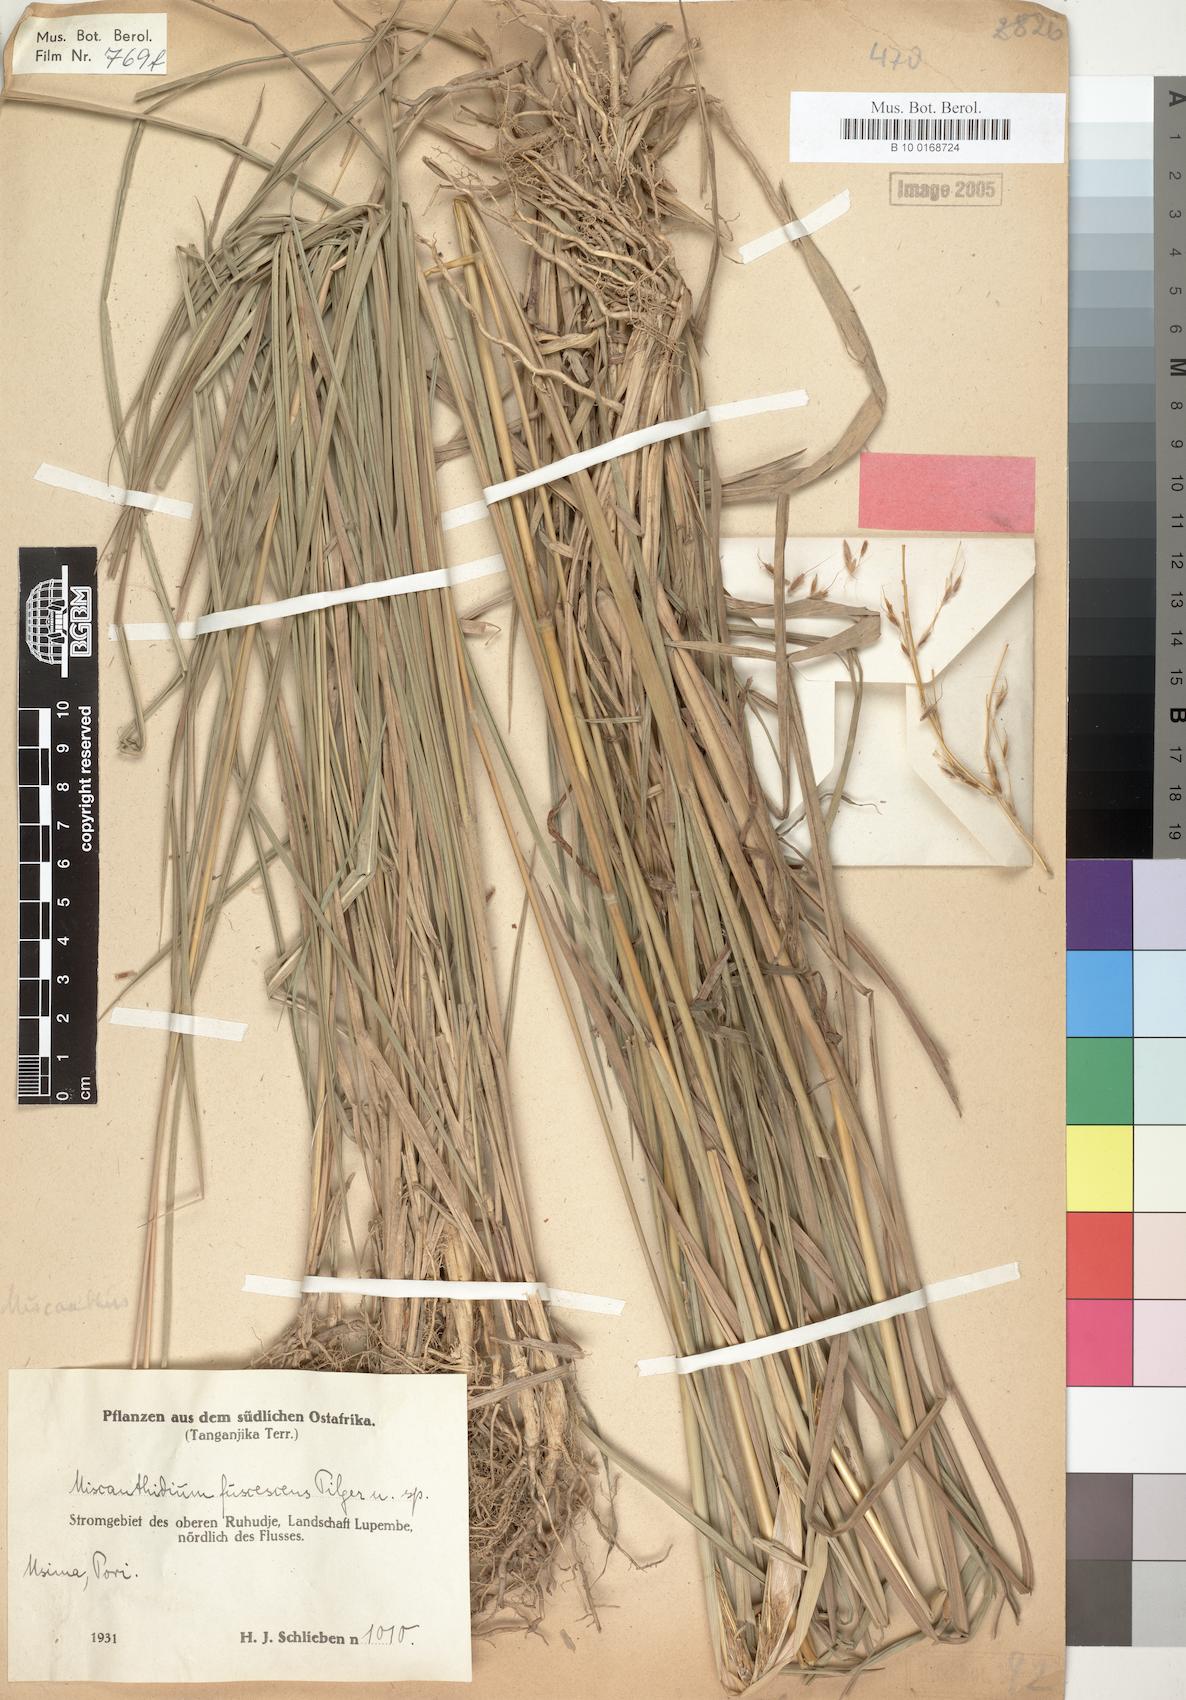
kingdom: Plantae
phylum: Tracheophyta
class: Liliopsida
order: Poales
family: Poaceae
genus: Sorghastrum
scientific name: Sorghastrum fuscescens
